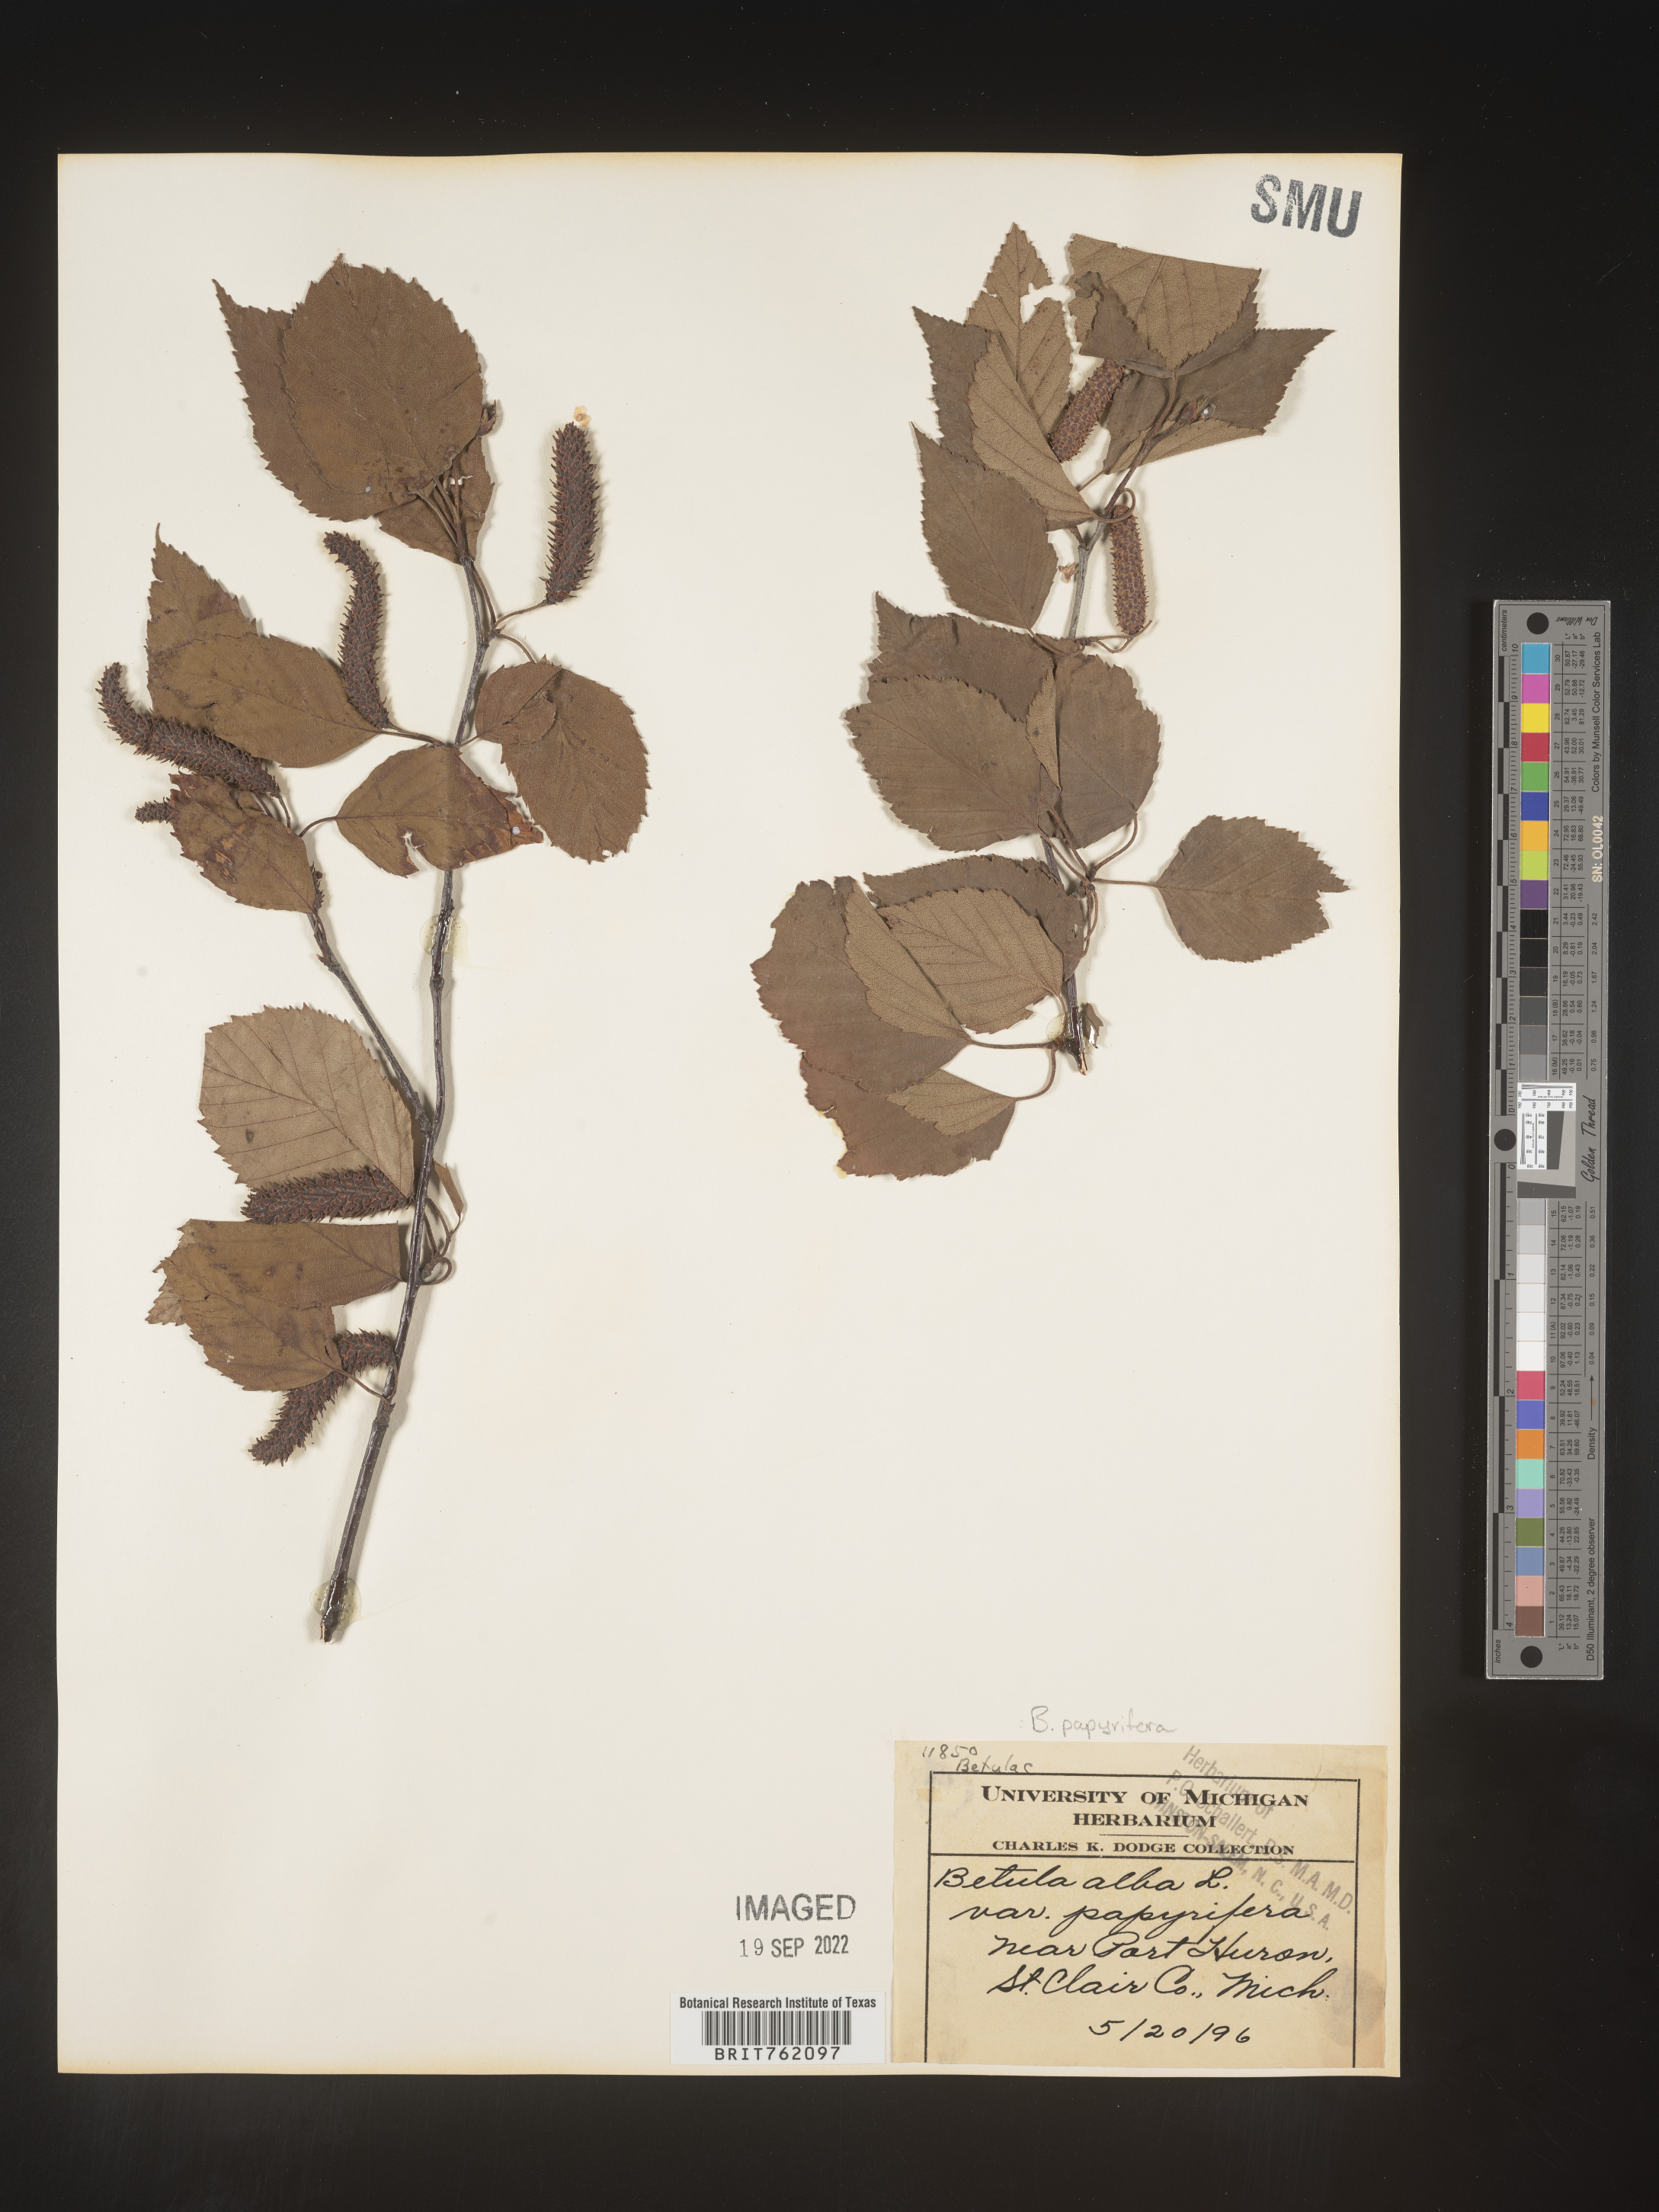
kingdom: Plantae
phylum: Tracheophyta
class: Magnoliopsida
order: Fagales
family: Betulaceae
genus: Betula
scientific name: Betula papyrifera
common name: Paper birch
